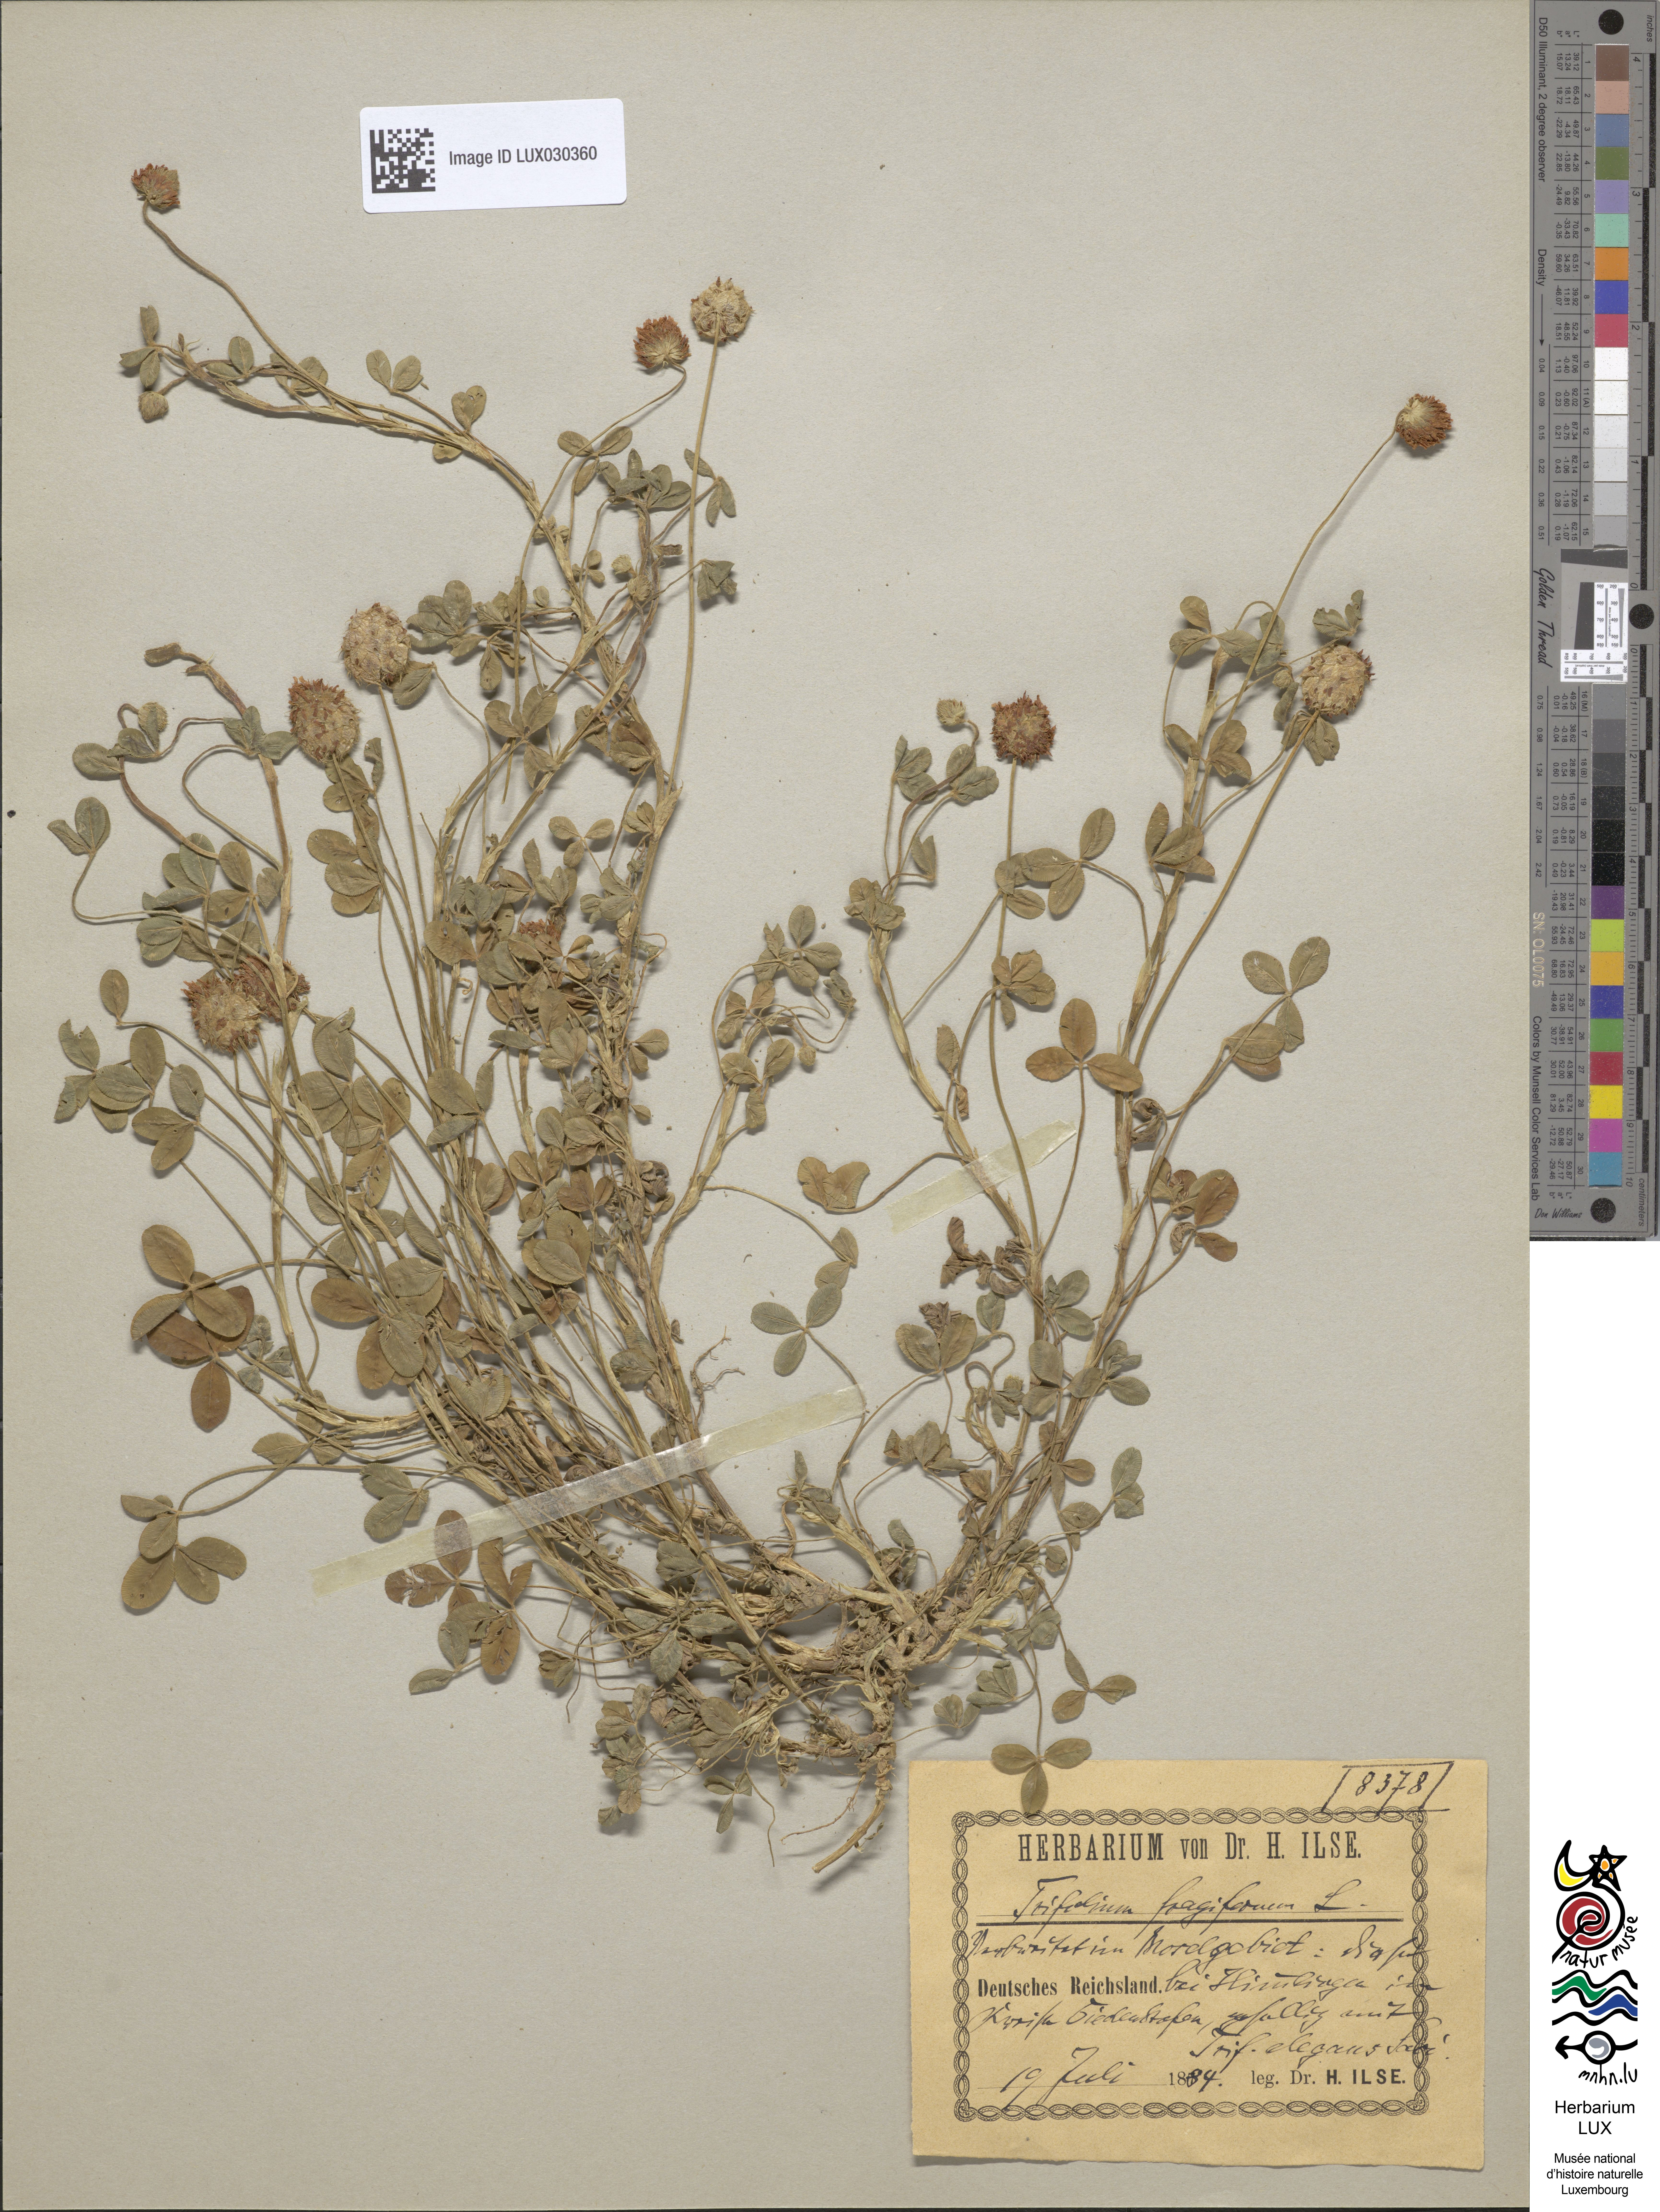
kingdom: Plantae
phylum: Tracheophyta
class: Magnoliopsida
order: Fabales
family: Fabaceae
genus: Trifolium
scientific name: Trifolium fragiferum
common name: Strawberry clover
